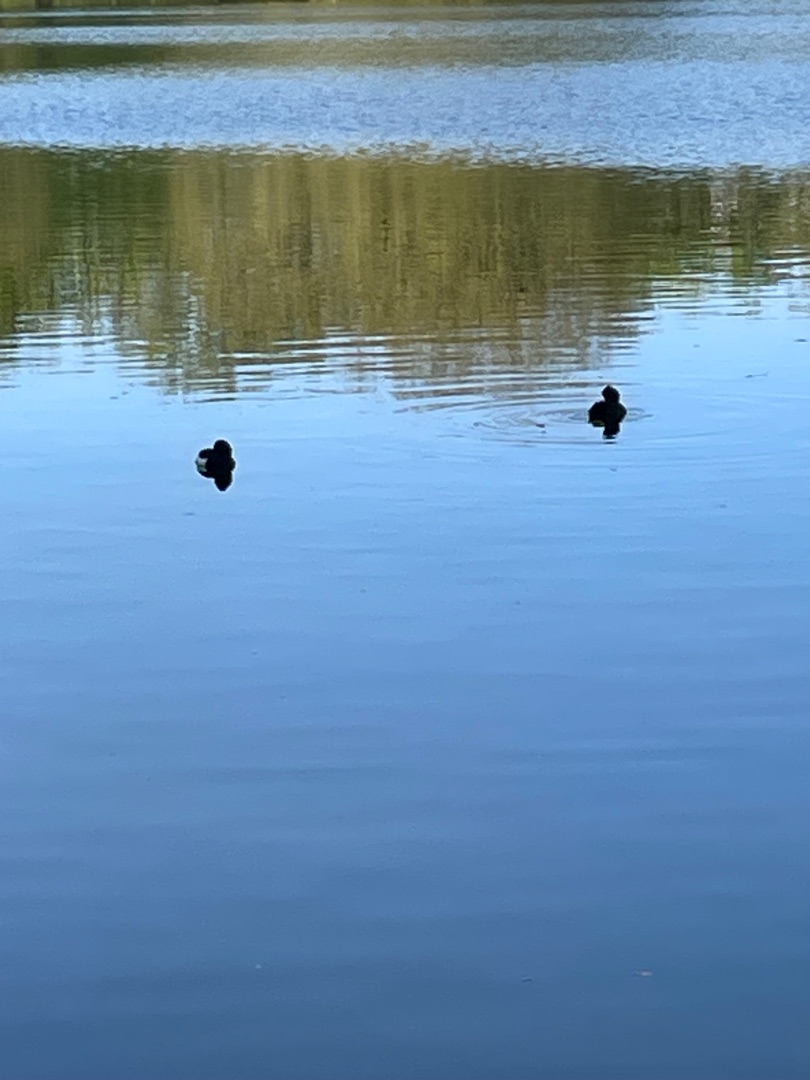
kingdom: Animalia
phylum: Chordata
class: Aves
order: Anseriformes
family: Anatidae
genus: Aythya
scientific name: Aythya fuligula
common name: Troldand
